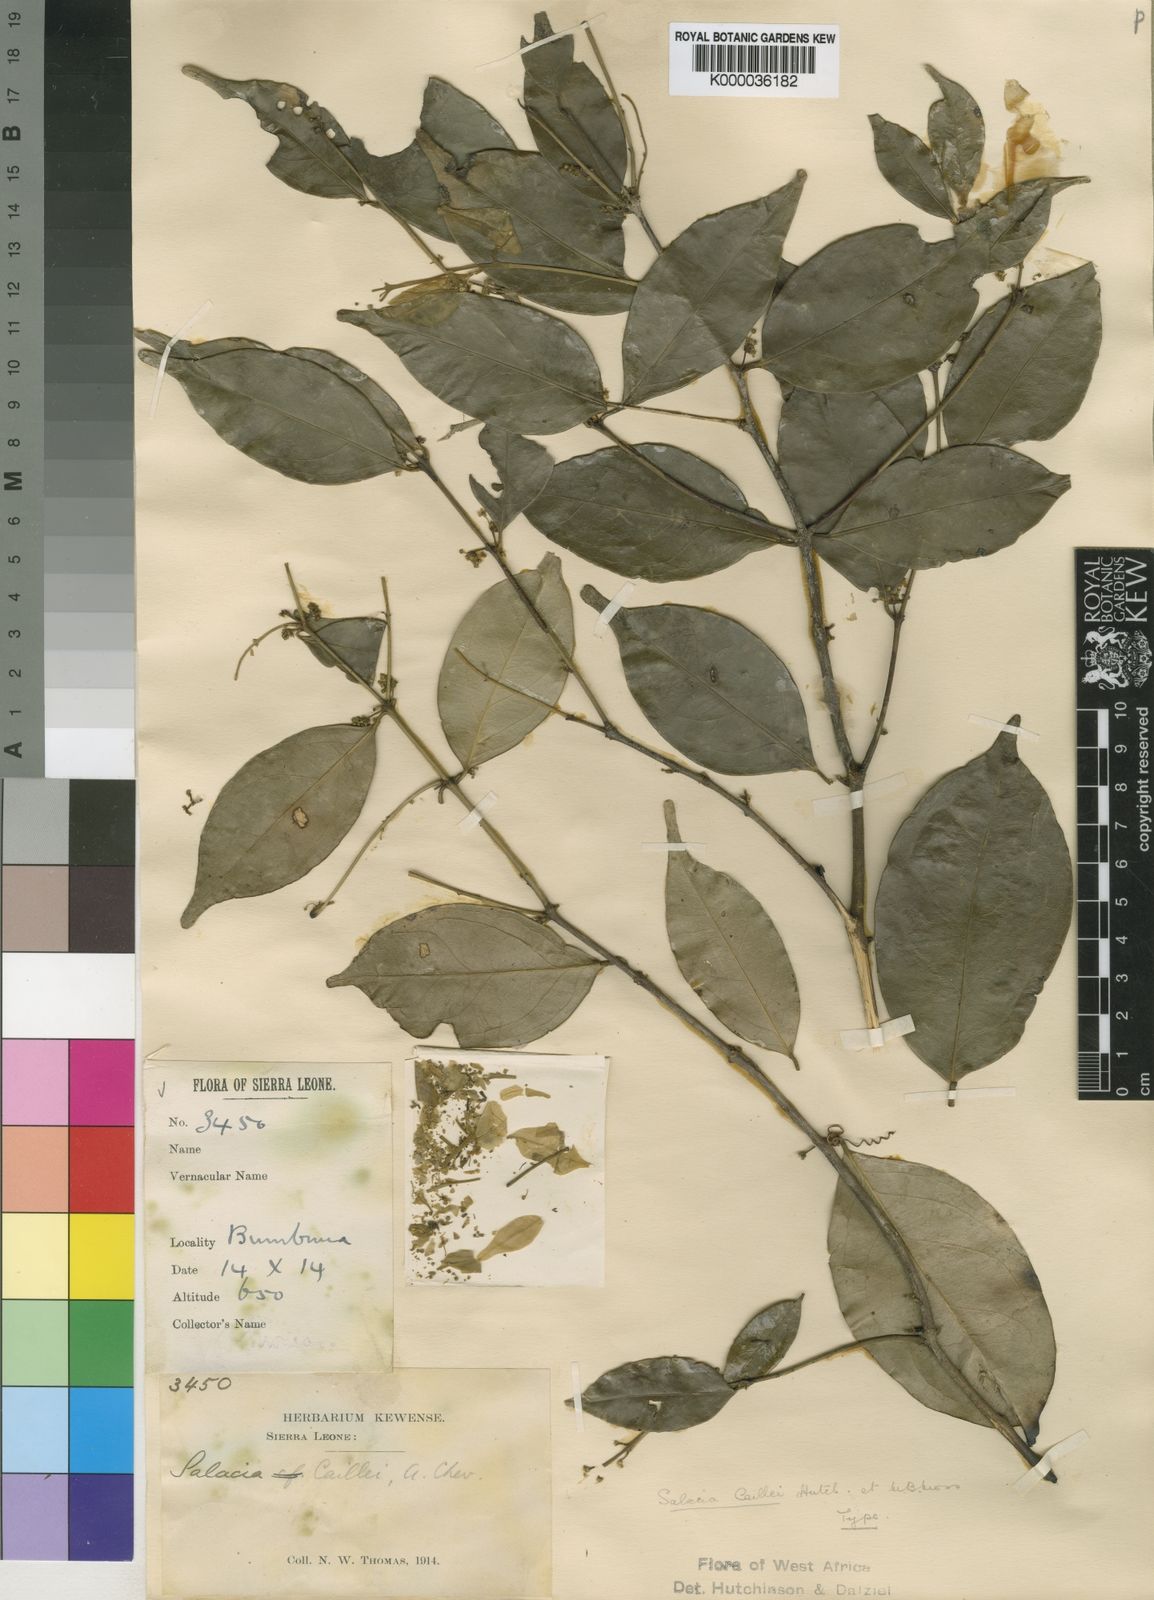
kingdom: Plantae
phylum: Tracheophyta
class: Magnoliopsida
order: Celastrales
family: Celastraceae
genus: Salacia
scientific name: Salacia staudtiana
